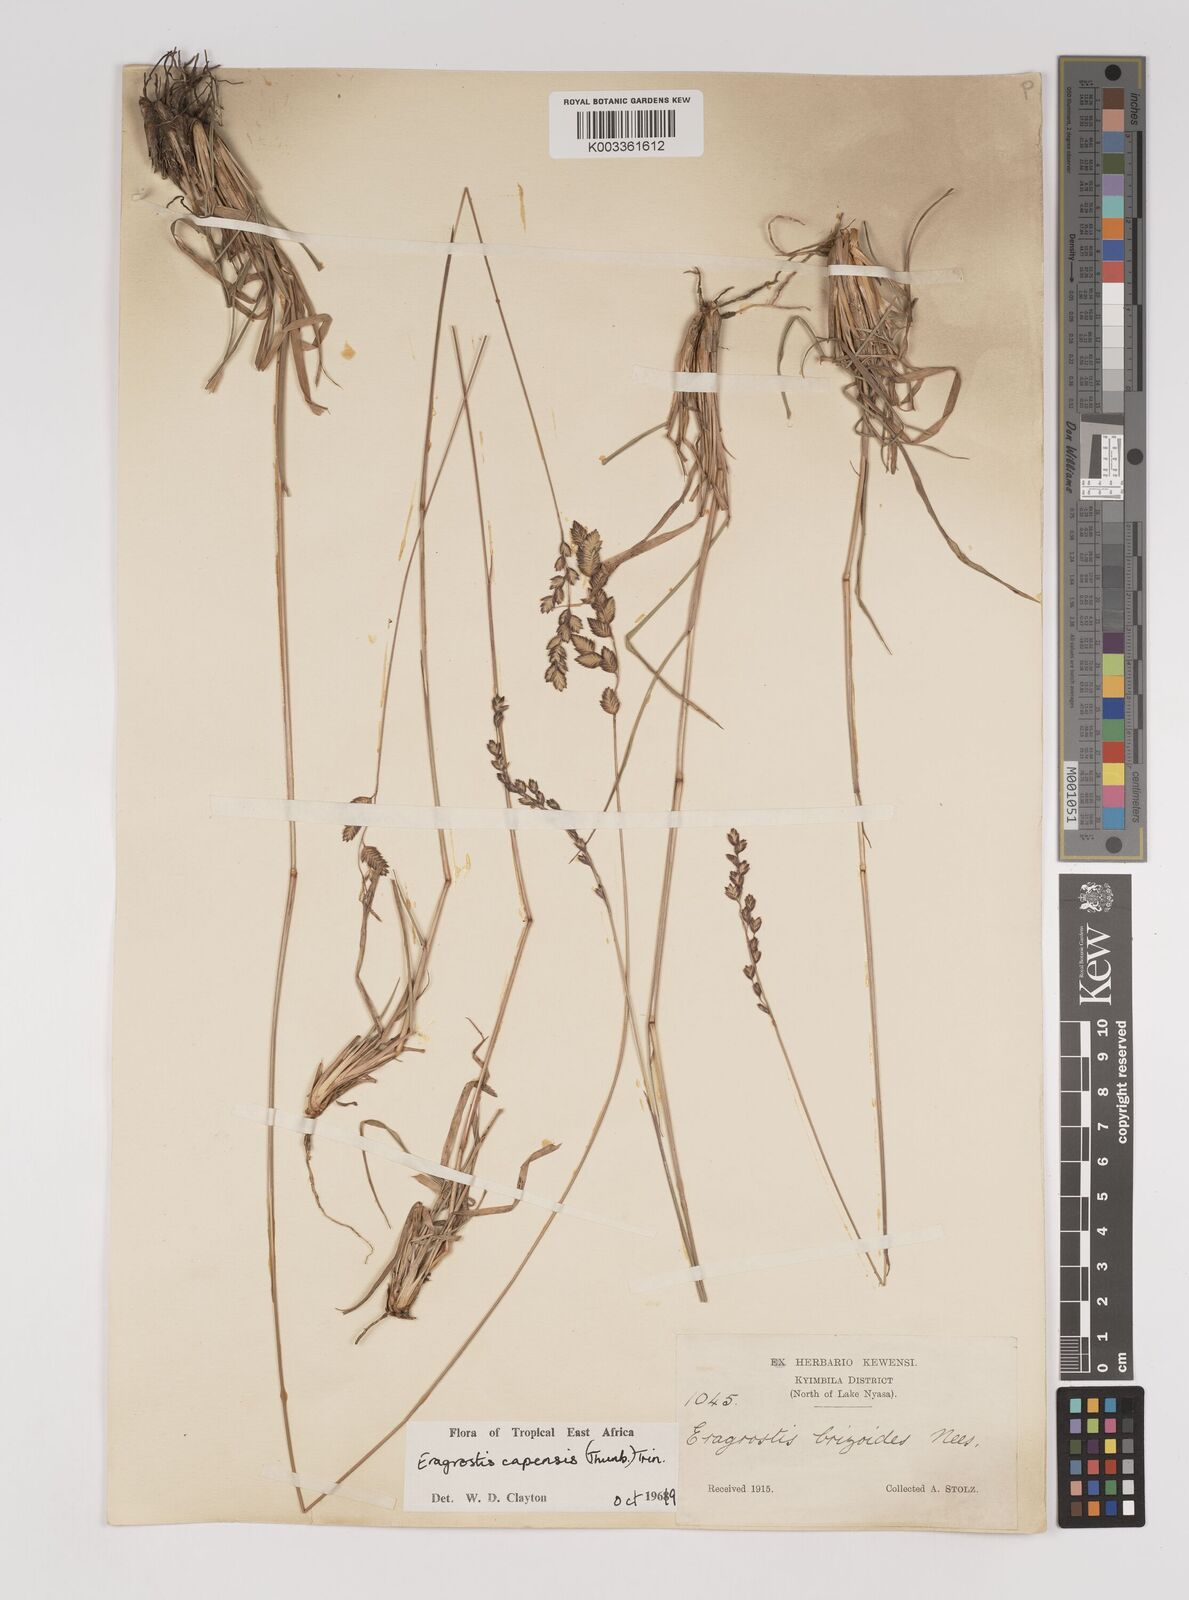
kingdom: Plantae
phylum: Tracheophyta
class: Liliopsida
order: Poales
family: Poaceae
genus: Eragrostis
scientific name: Eragrostis capensis
